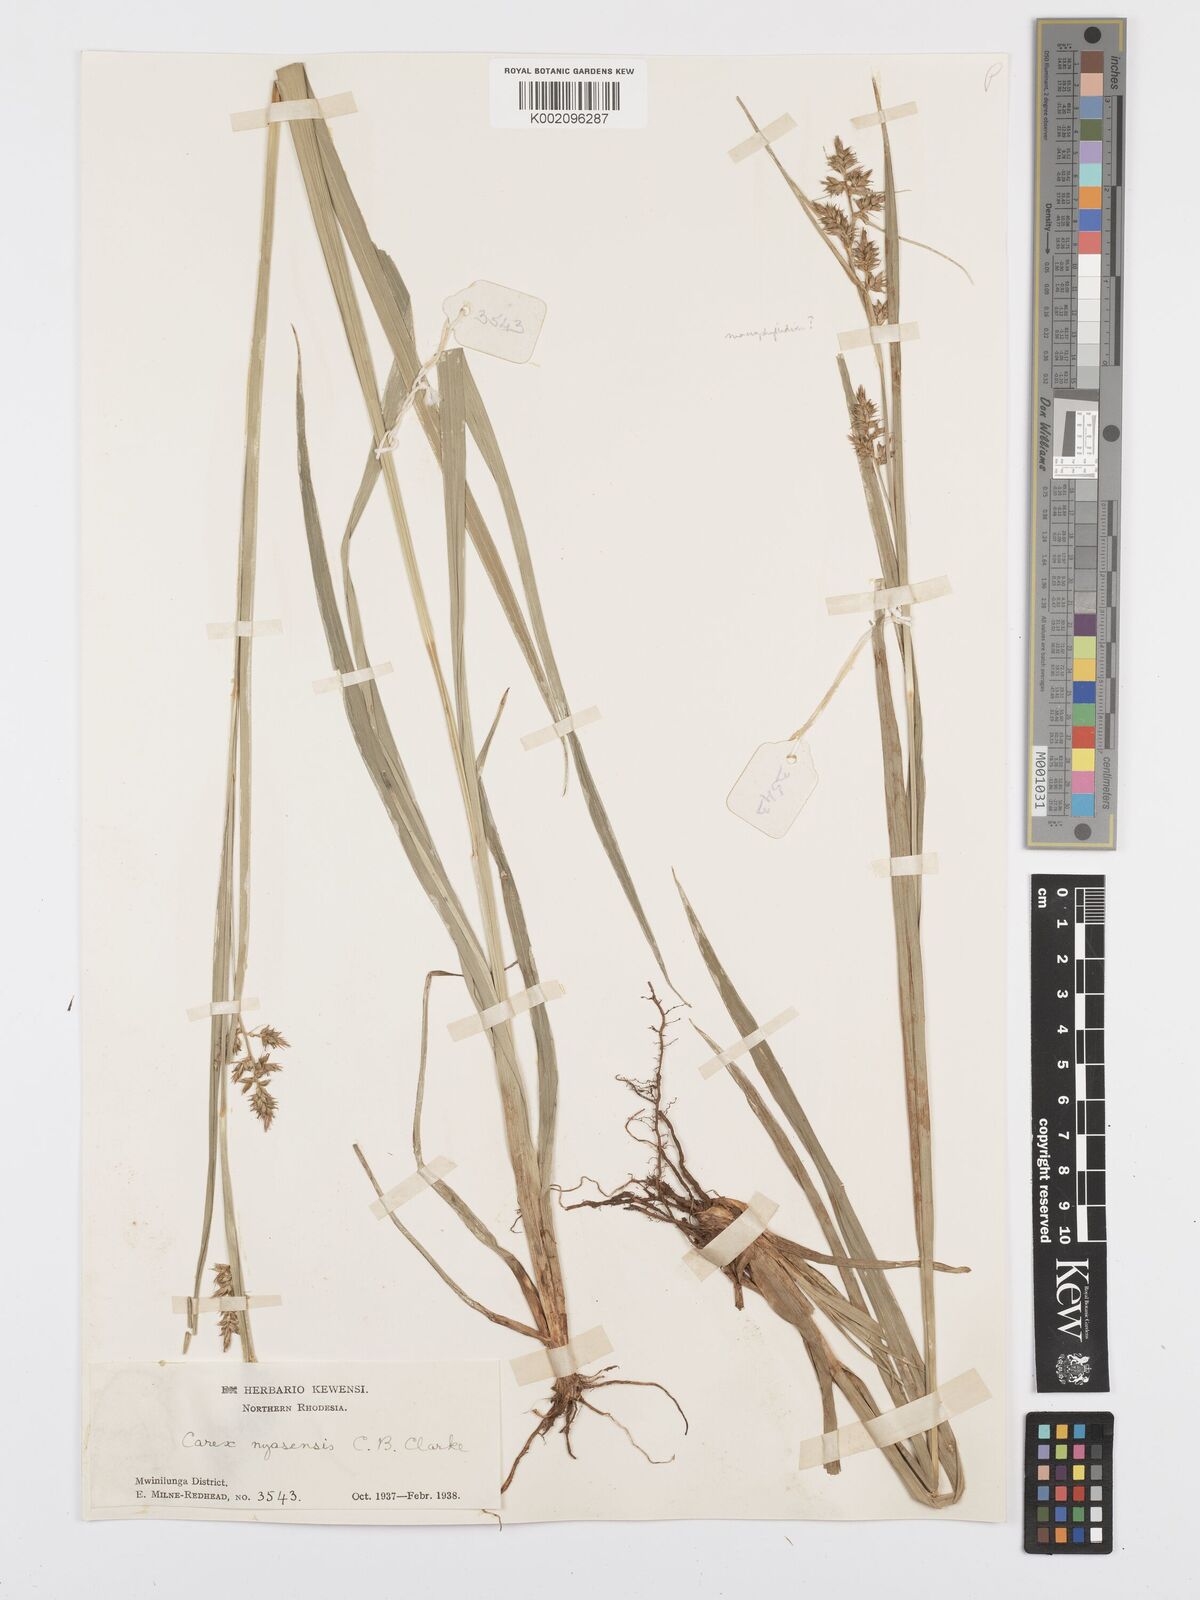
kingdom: Plantae
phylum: Tracheophyta
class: Liliopsida
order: Poales
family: Cyperaceae
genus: Carex
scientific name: Carex spicatopaniculata
